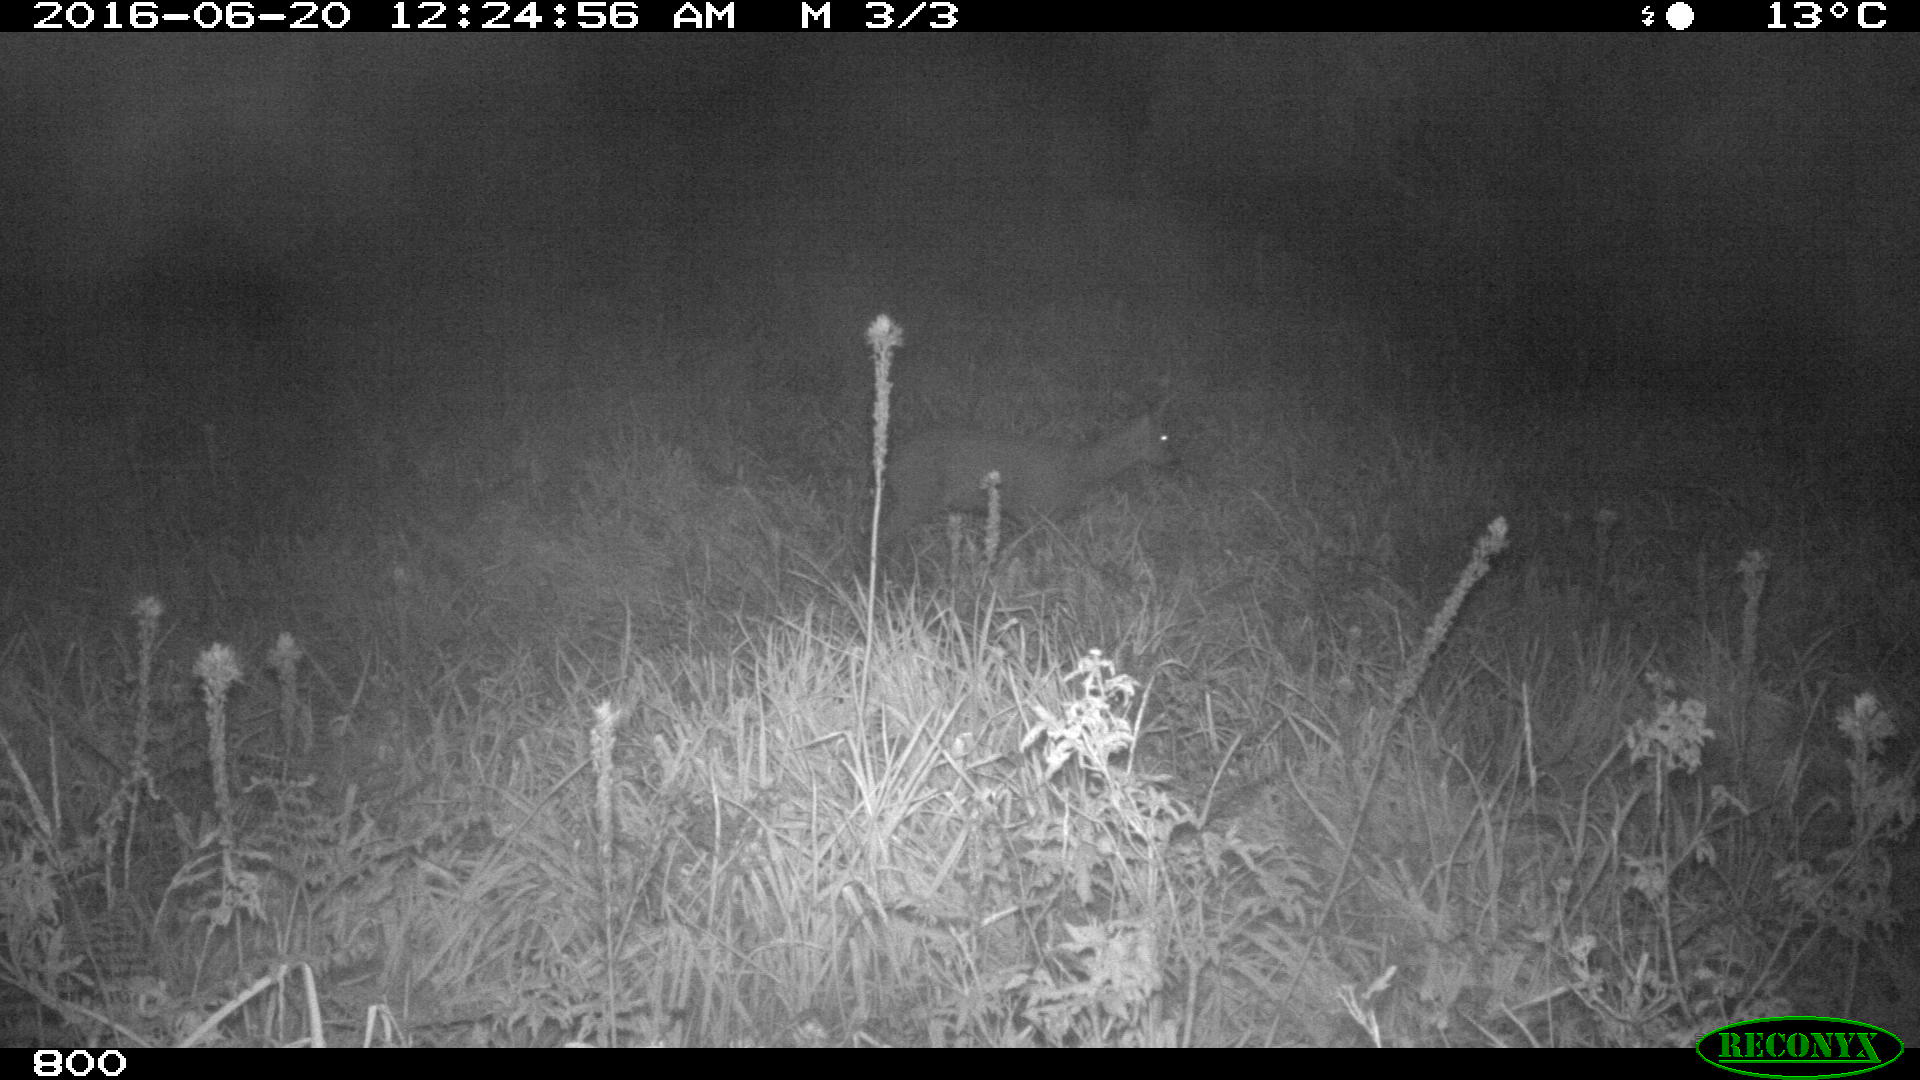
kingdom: Animalia
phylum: Chordata
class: Mammalia
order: Artiodactyla
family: Cervidae
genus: Capreolus
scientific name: Capreolus capreolus
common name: Western roe deer
